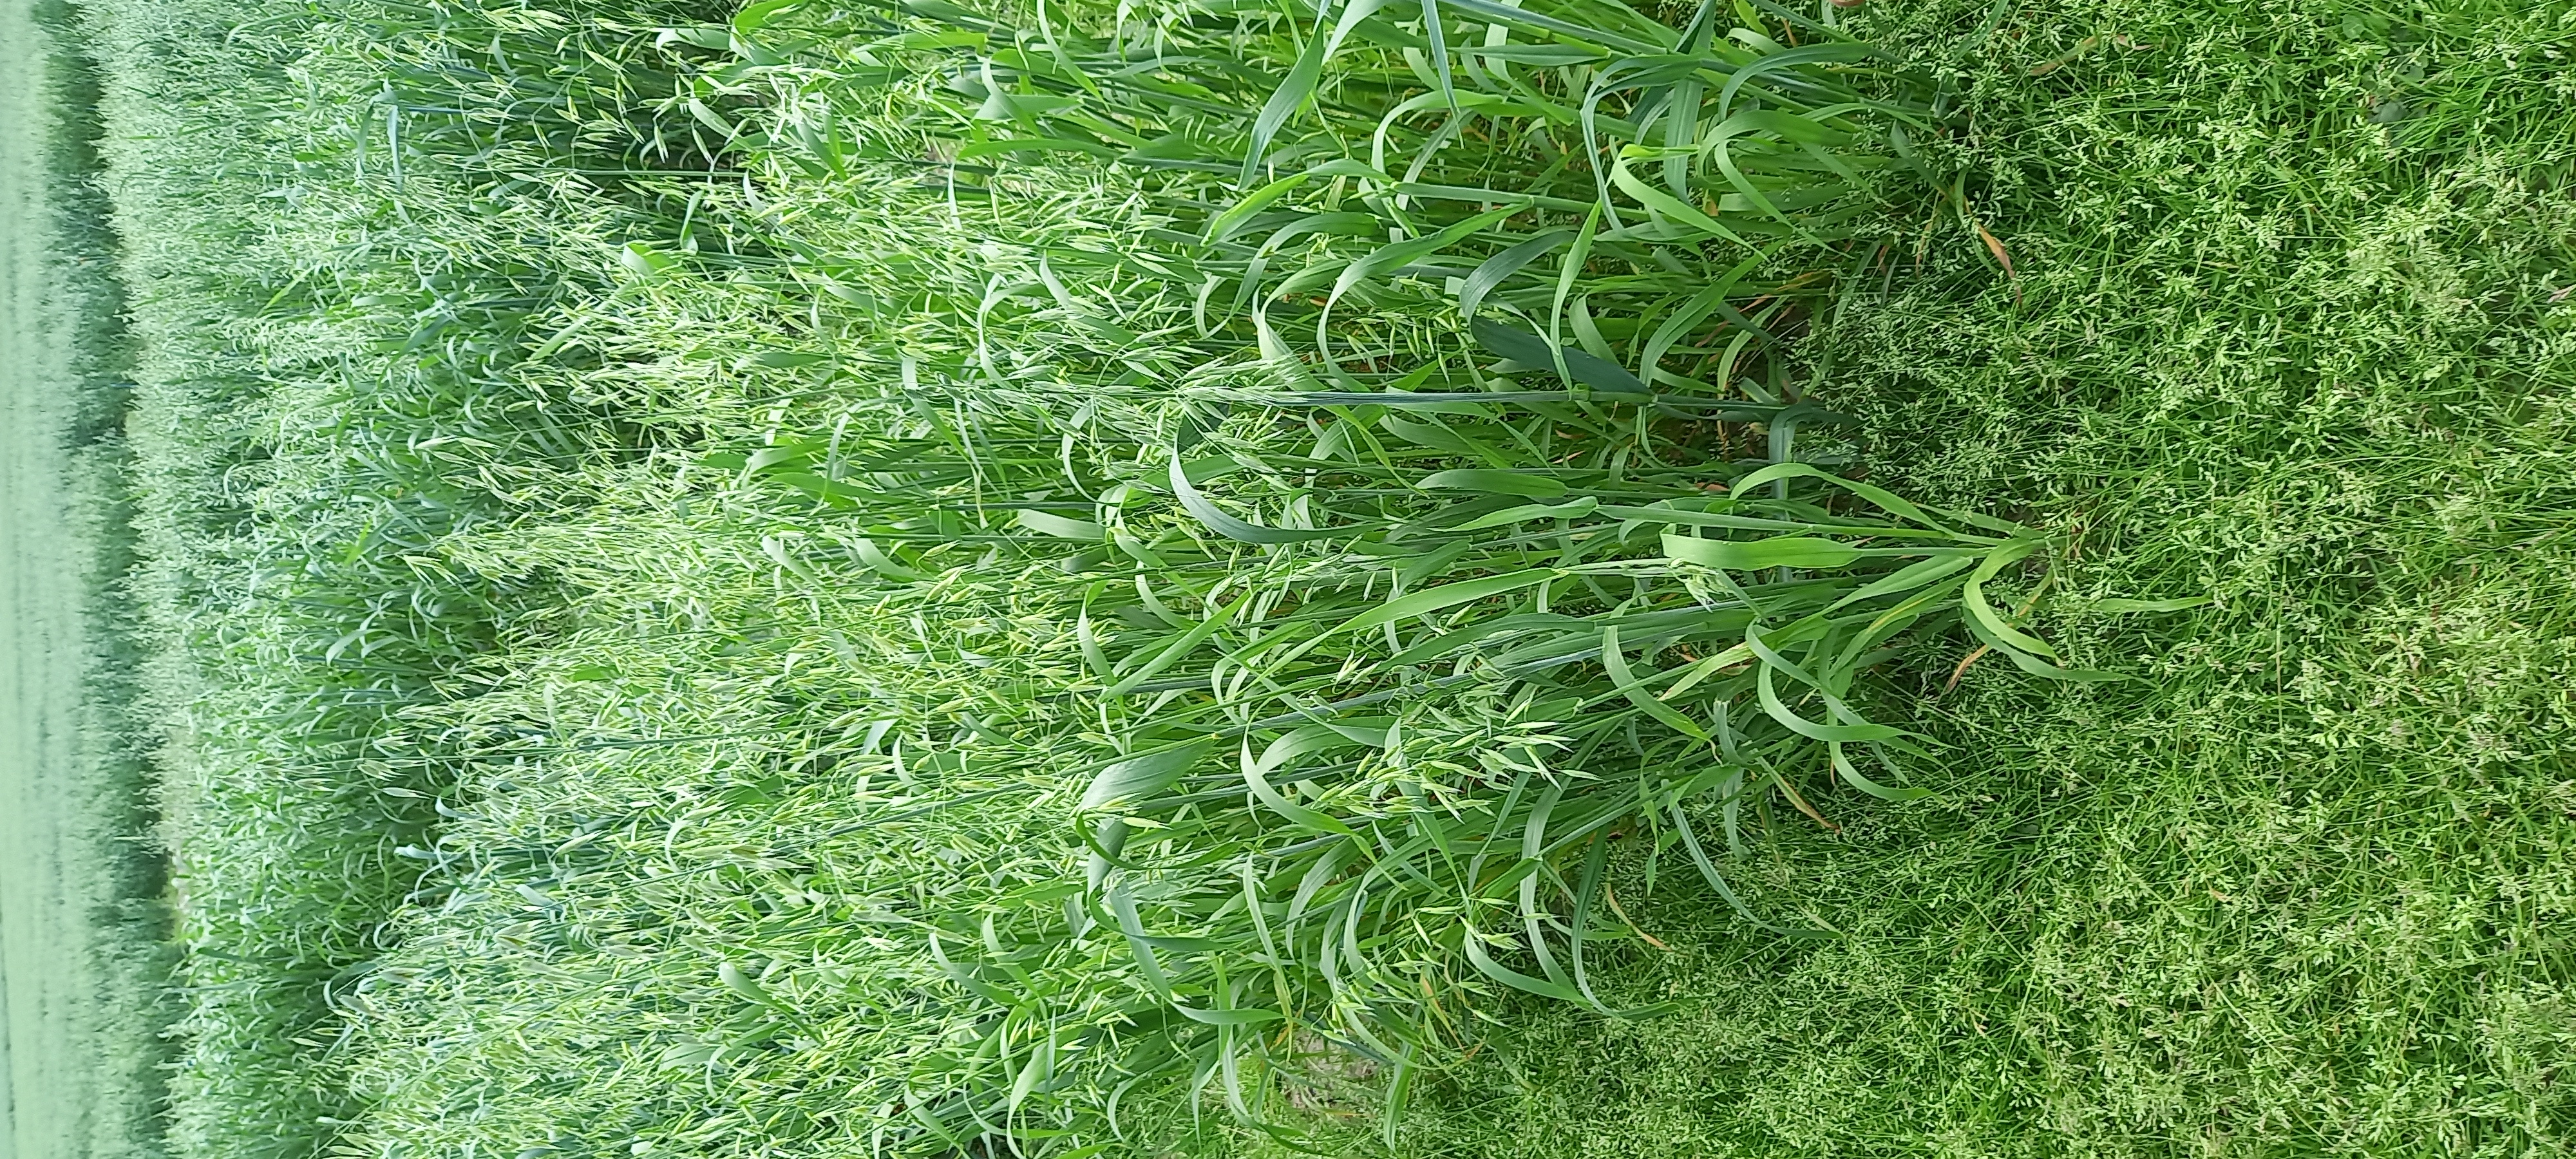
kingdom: Plantae
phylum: Tracheophyta
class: Liliopsida
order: Poales
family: Poaceae
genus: Avena
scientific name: Avena sativa
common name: Oat
